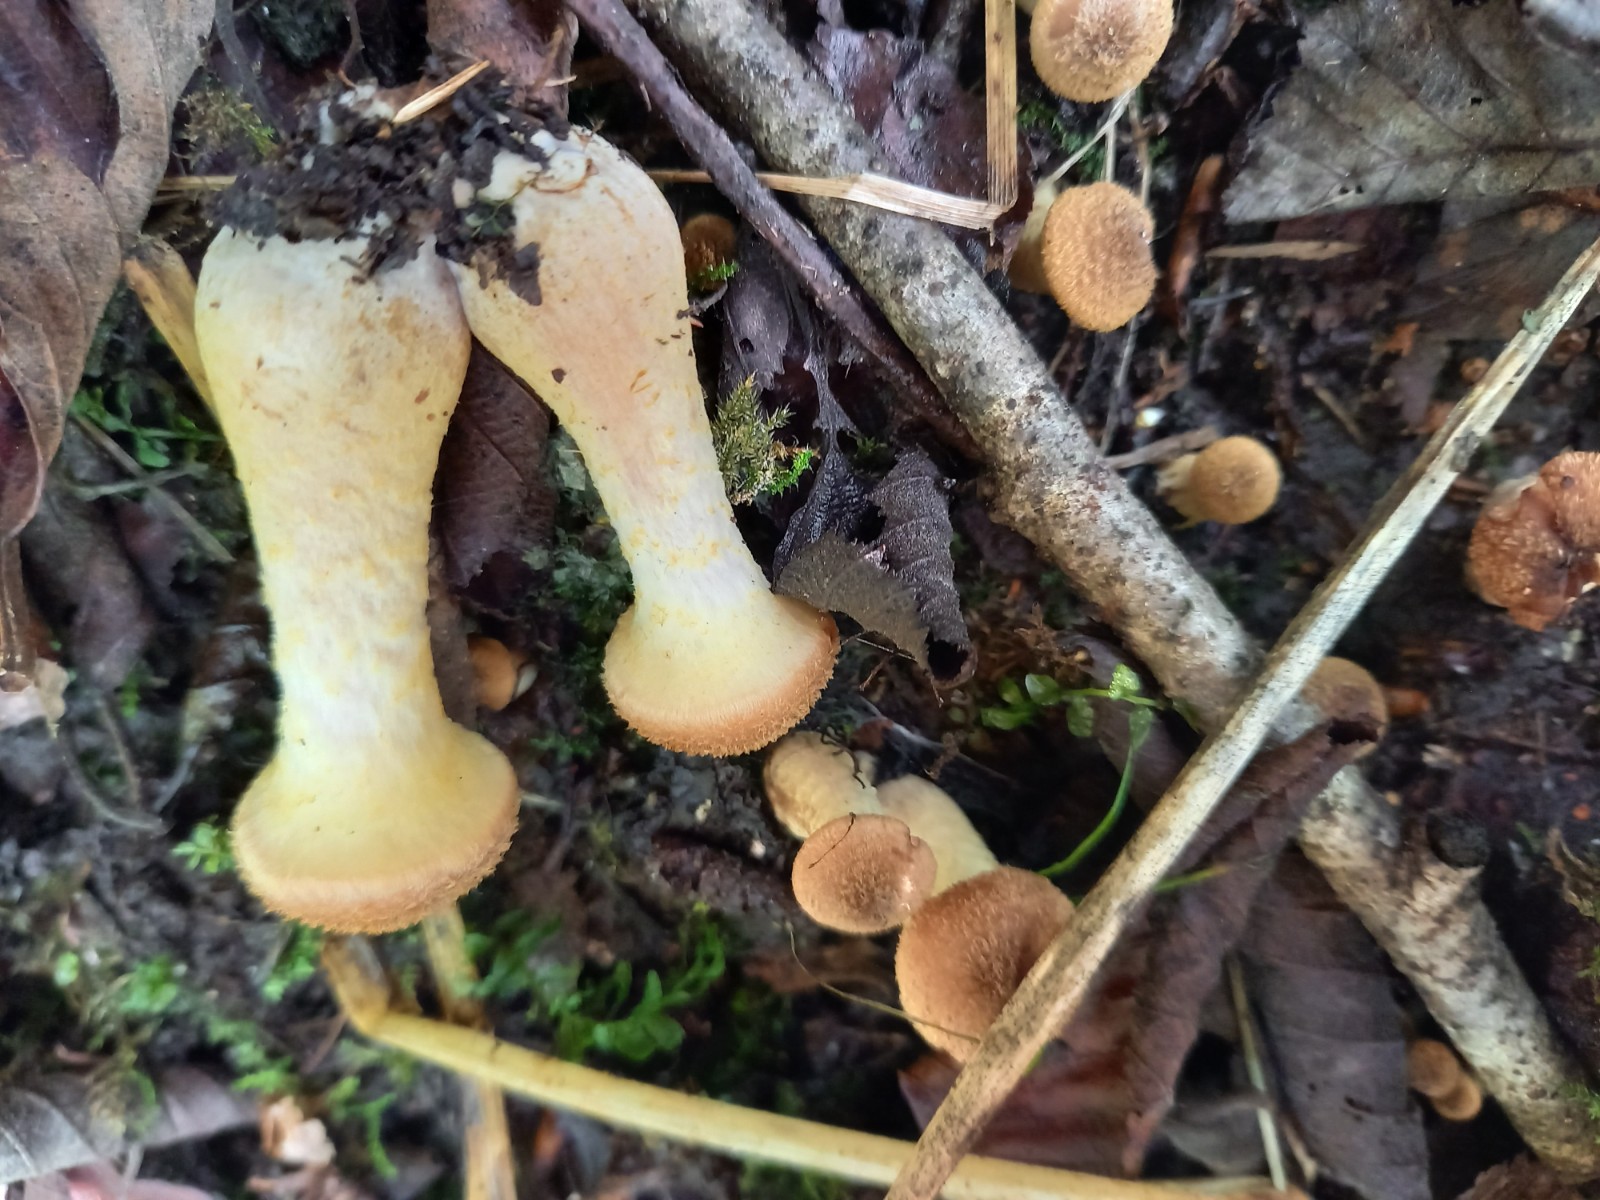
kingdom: Fungi
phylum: Basidiomycota
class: Agaricomycetes
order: Agaricales
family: Physalacriaceae
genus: Armillaria
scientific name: Armillaria lutea
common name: køllestokket honningsvamp
